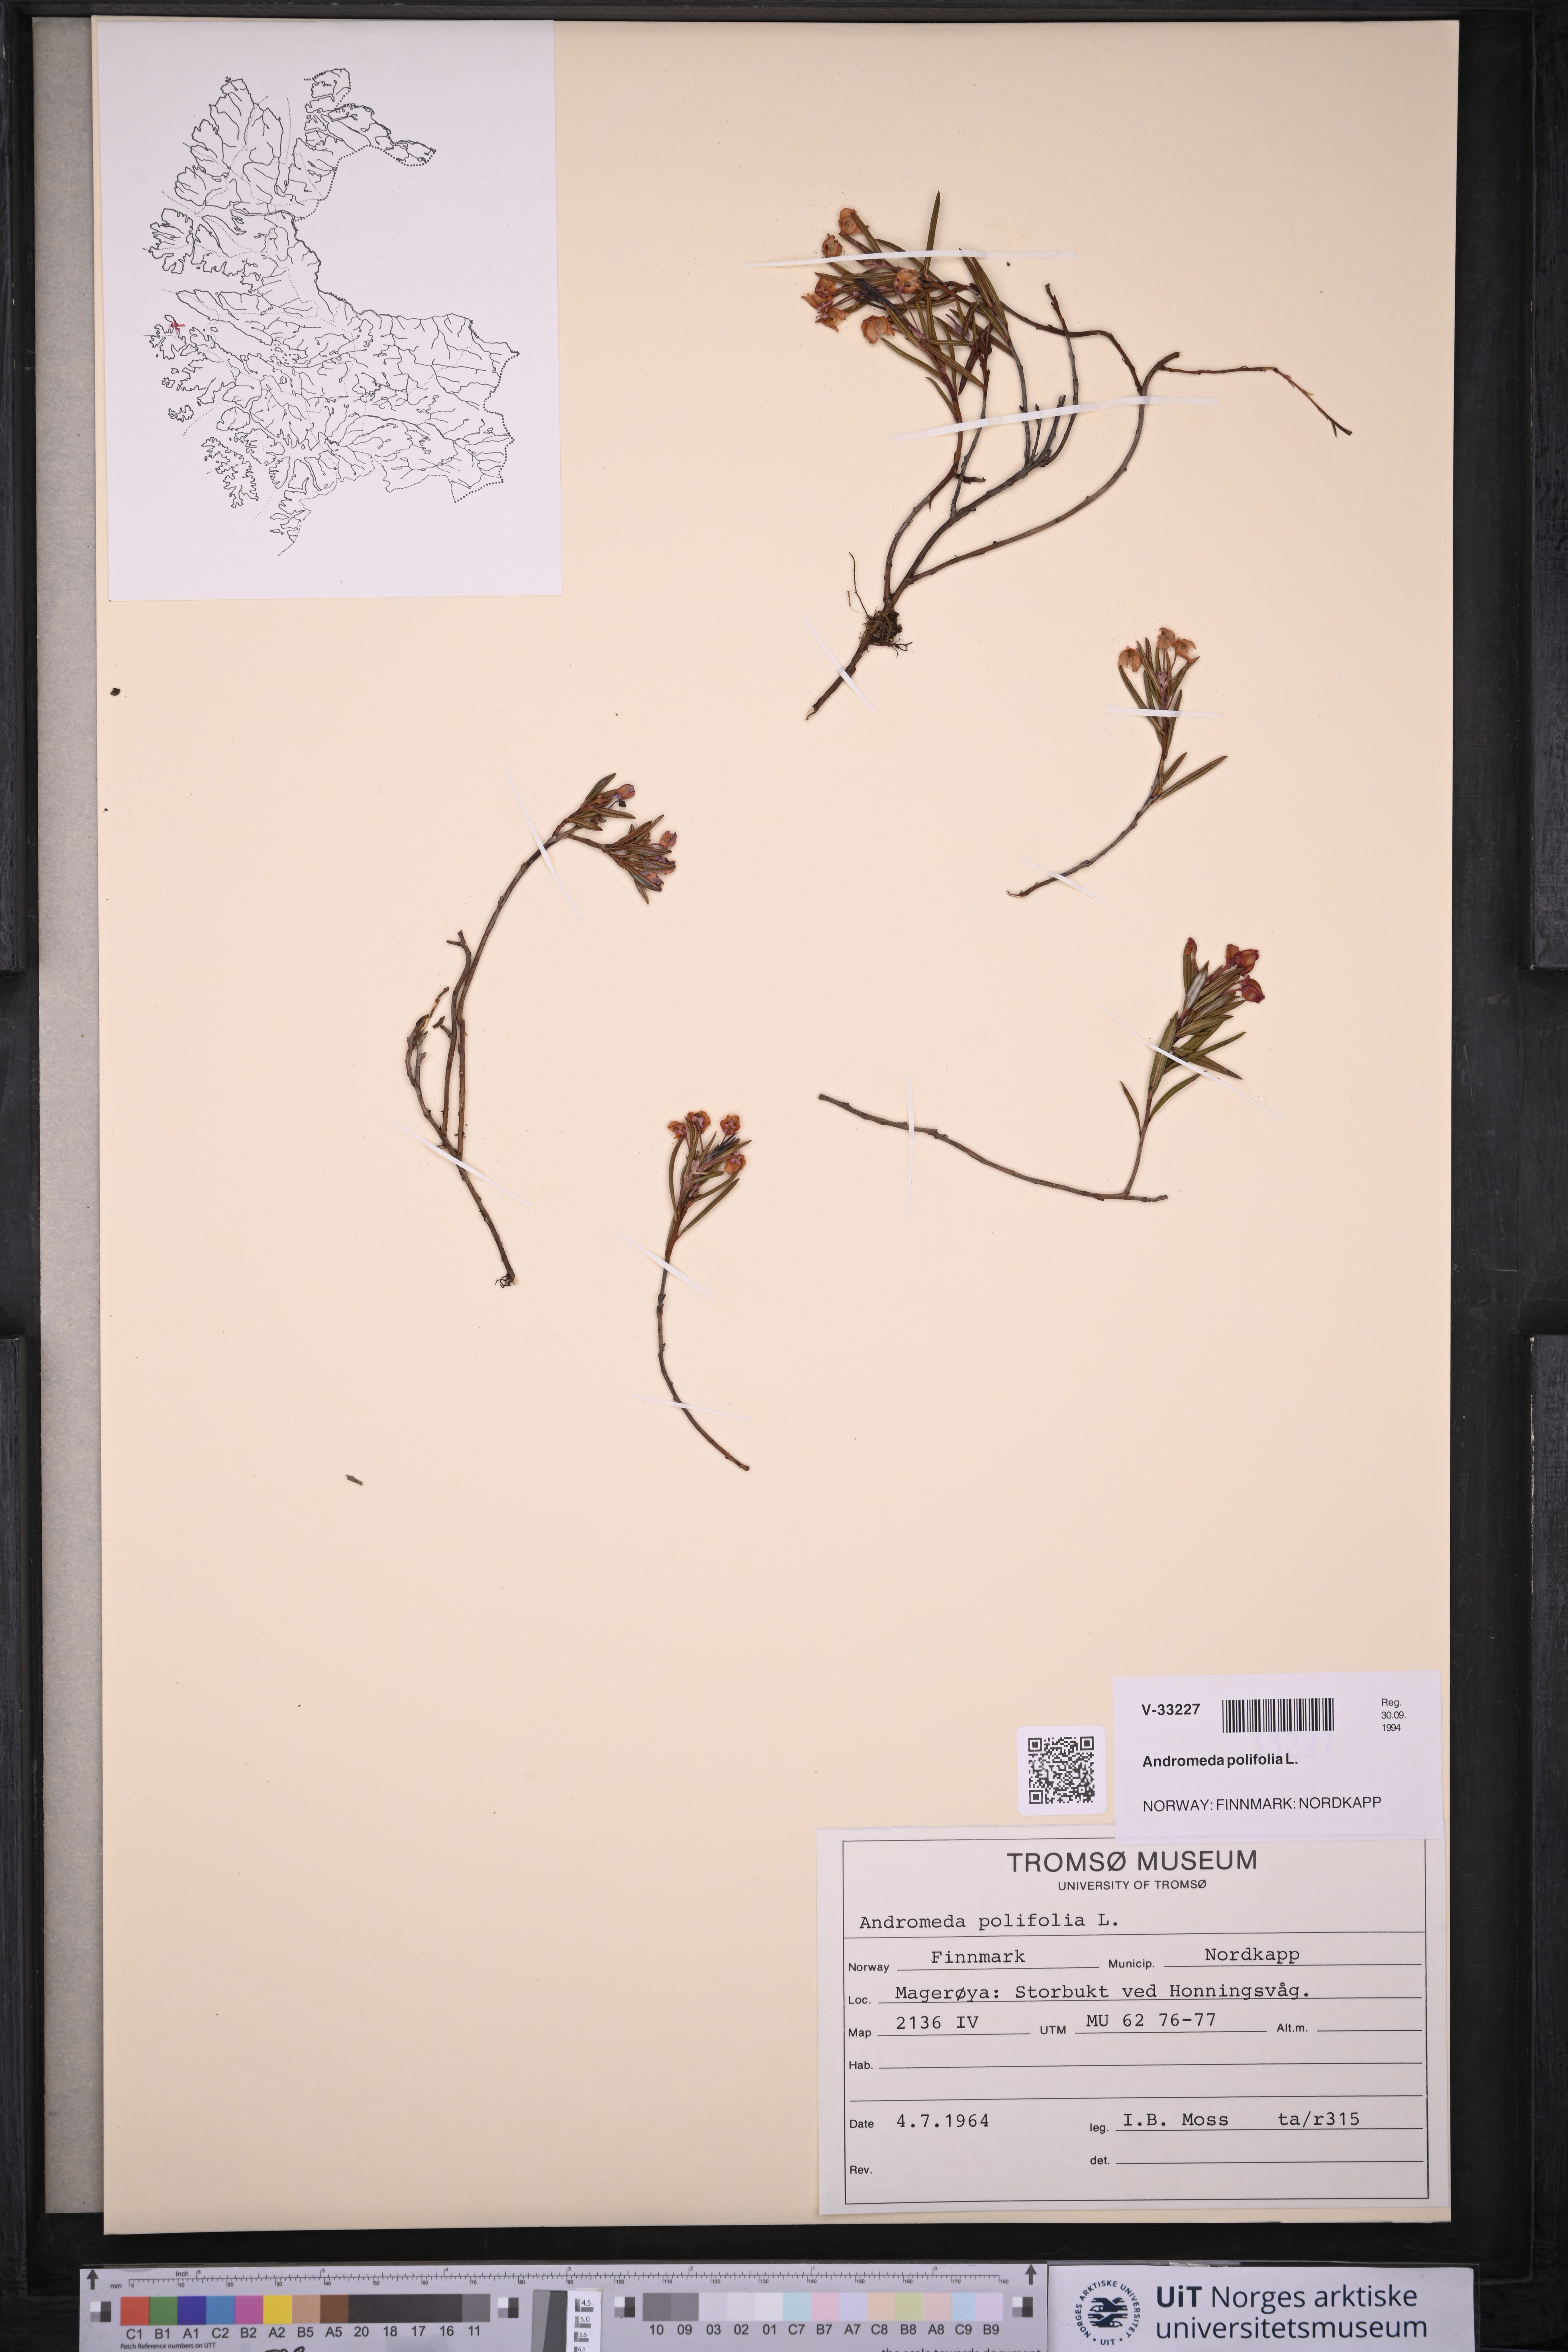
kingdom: Plantae
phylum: Tracheophyta
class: Magnoliopsida
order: Ericales
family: Ericaceae
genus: Andromeda
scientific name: Andromeda polifolia
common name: Bog-rosemary
